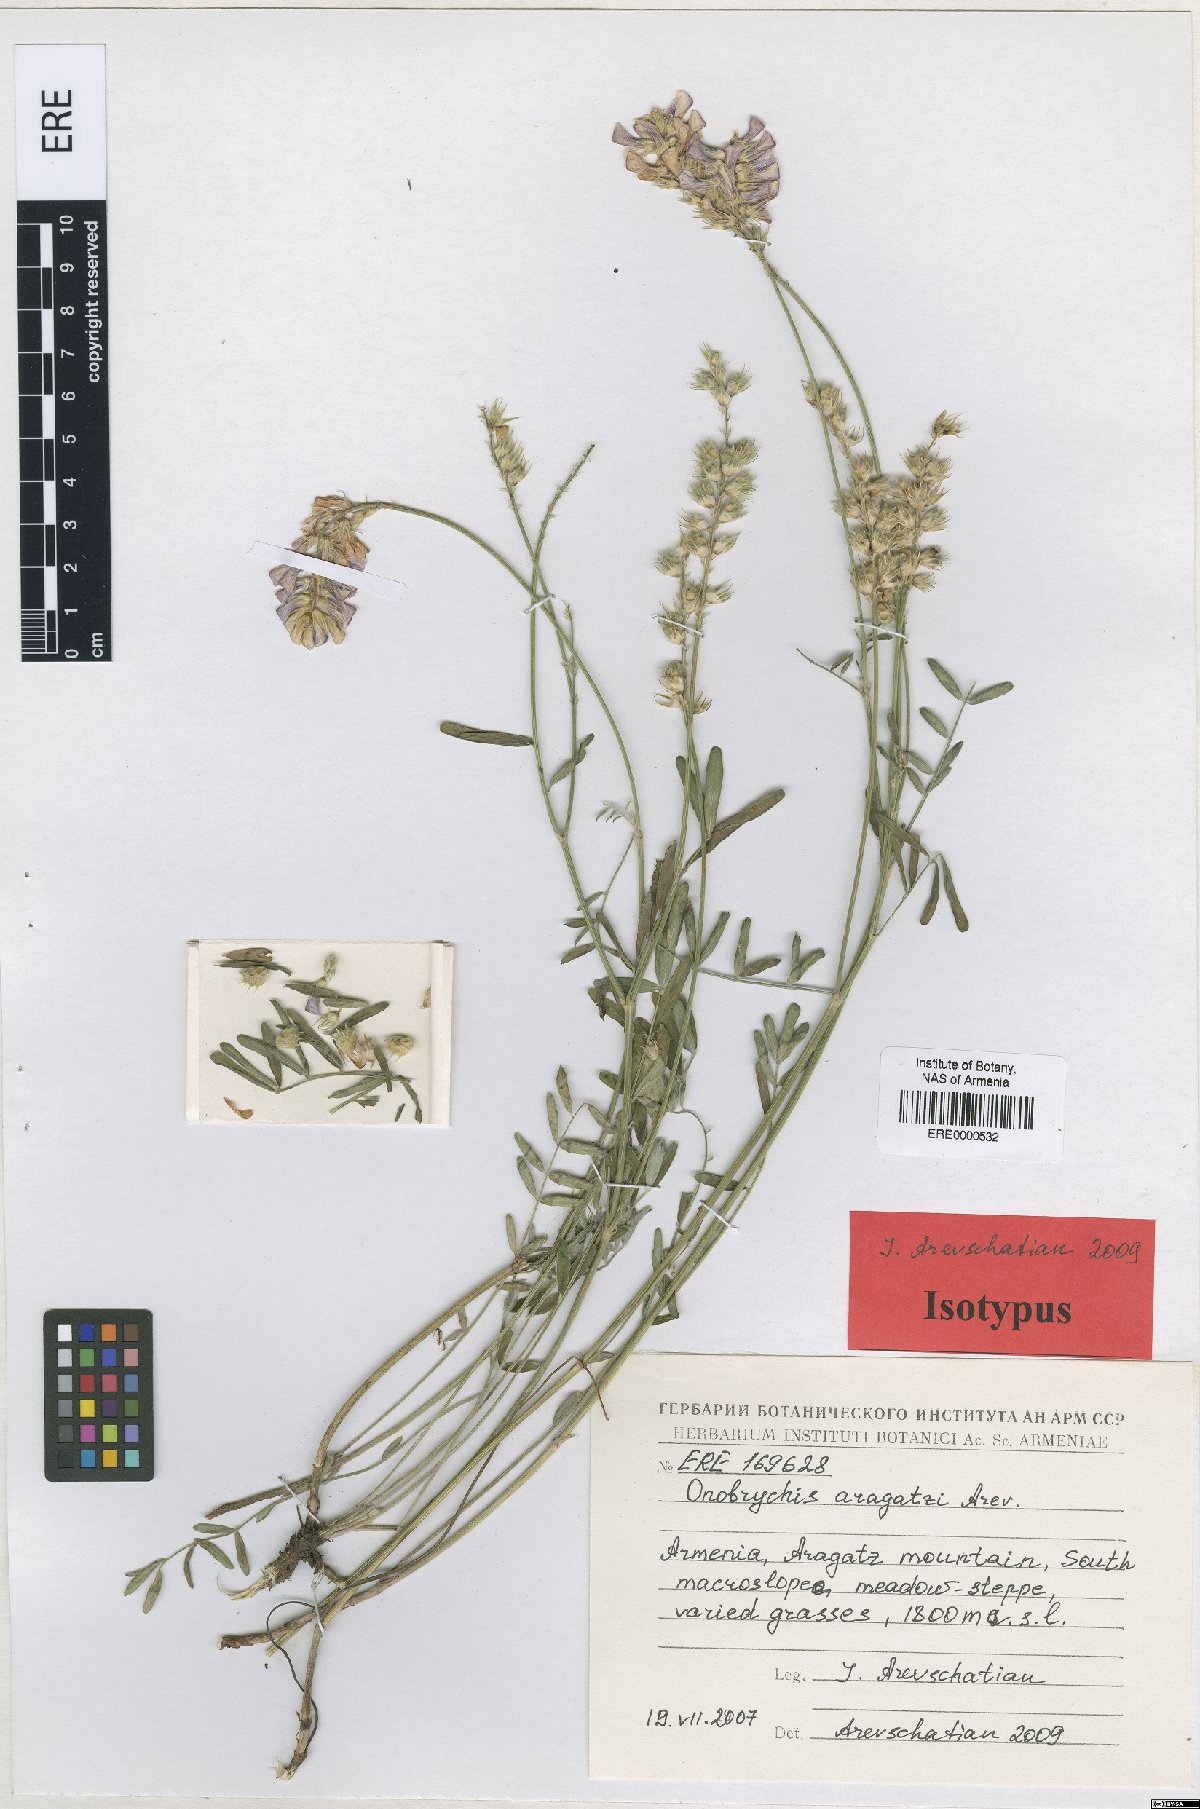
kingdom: Plantae
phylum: Tracheophyta
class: Magnoliopsida
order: Fabales
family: Fabaceae
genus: Onobrychis
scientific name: Onobrychis aragatzi
